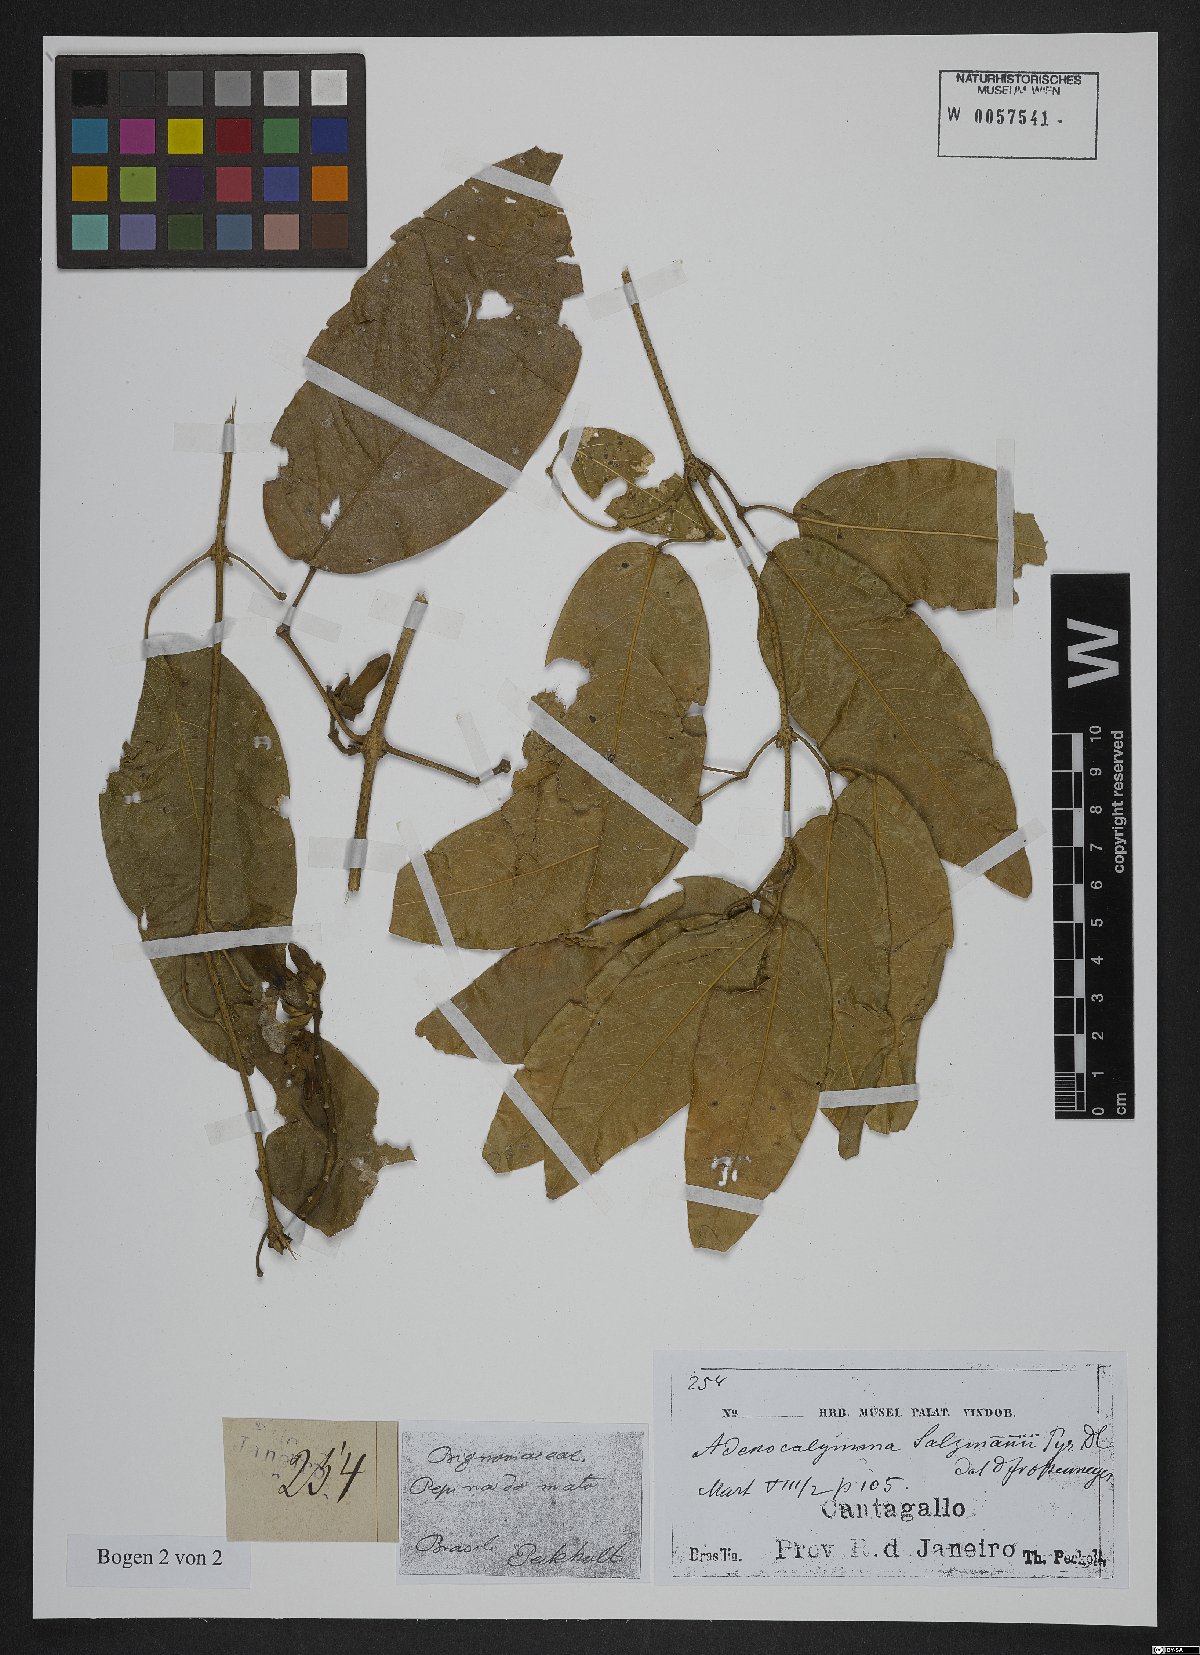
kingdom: Plantae
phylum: Tracheophyta
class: Magnoliopsida
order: Lamiales
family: Bignoniaceae
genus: Adenocalymma
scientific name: Adenocalymma coriaceum
